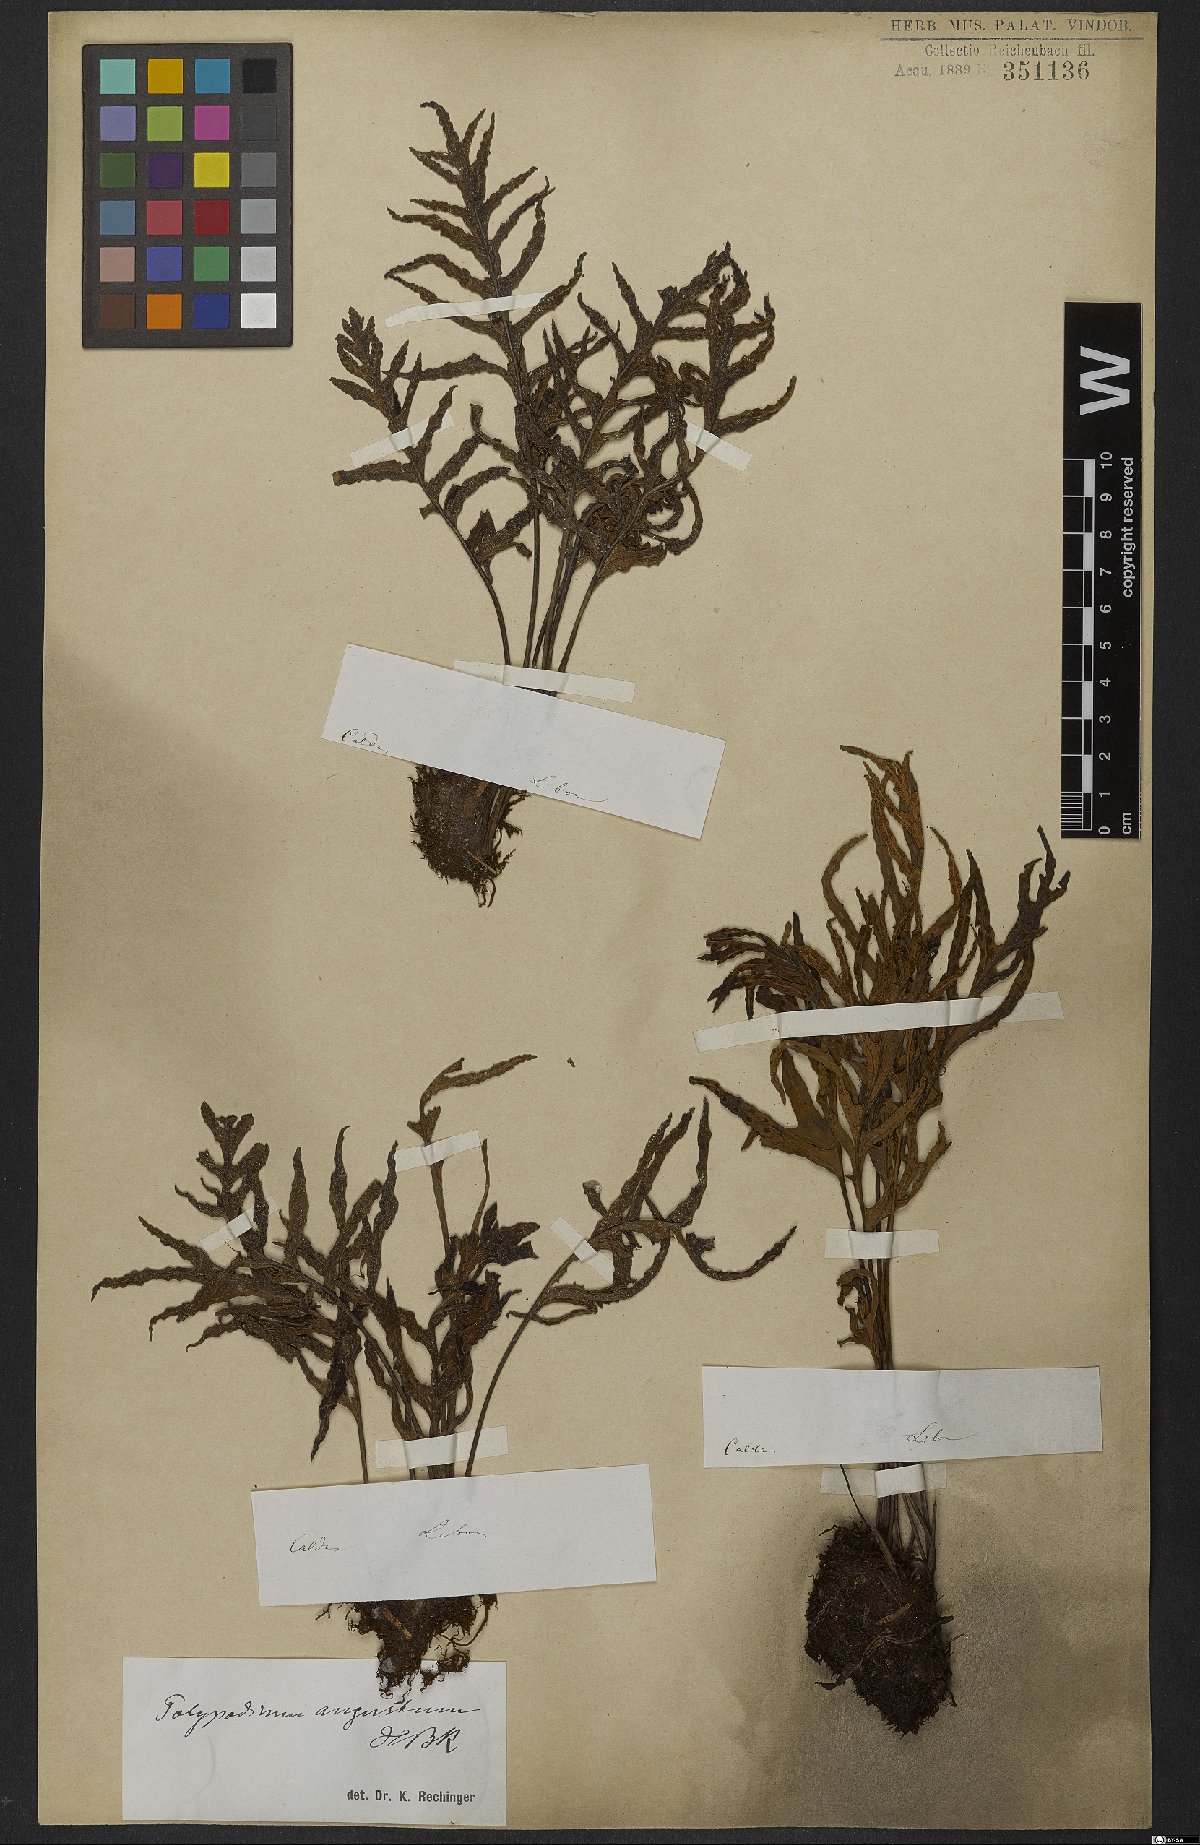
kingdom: Plantae
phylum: Tracheophyta
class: Polypodiopsida
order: Polypodiales
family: Polypodiaceae
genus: Pleopeltis
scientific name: Pleopeltis angusta
